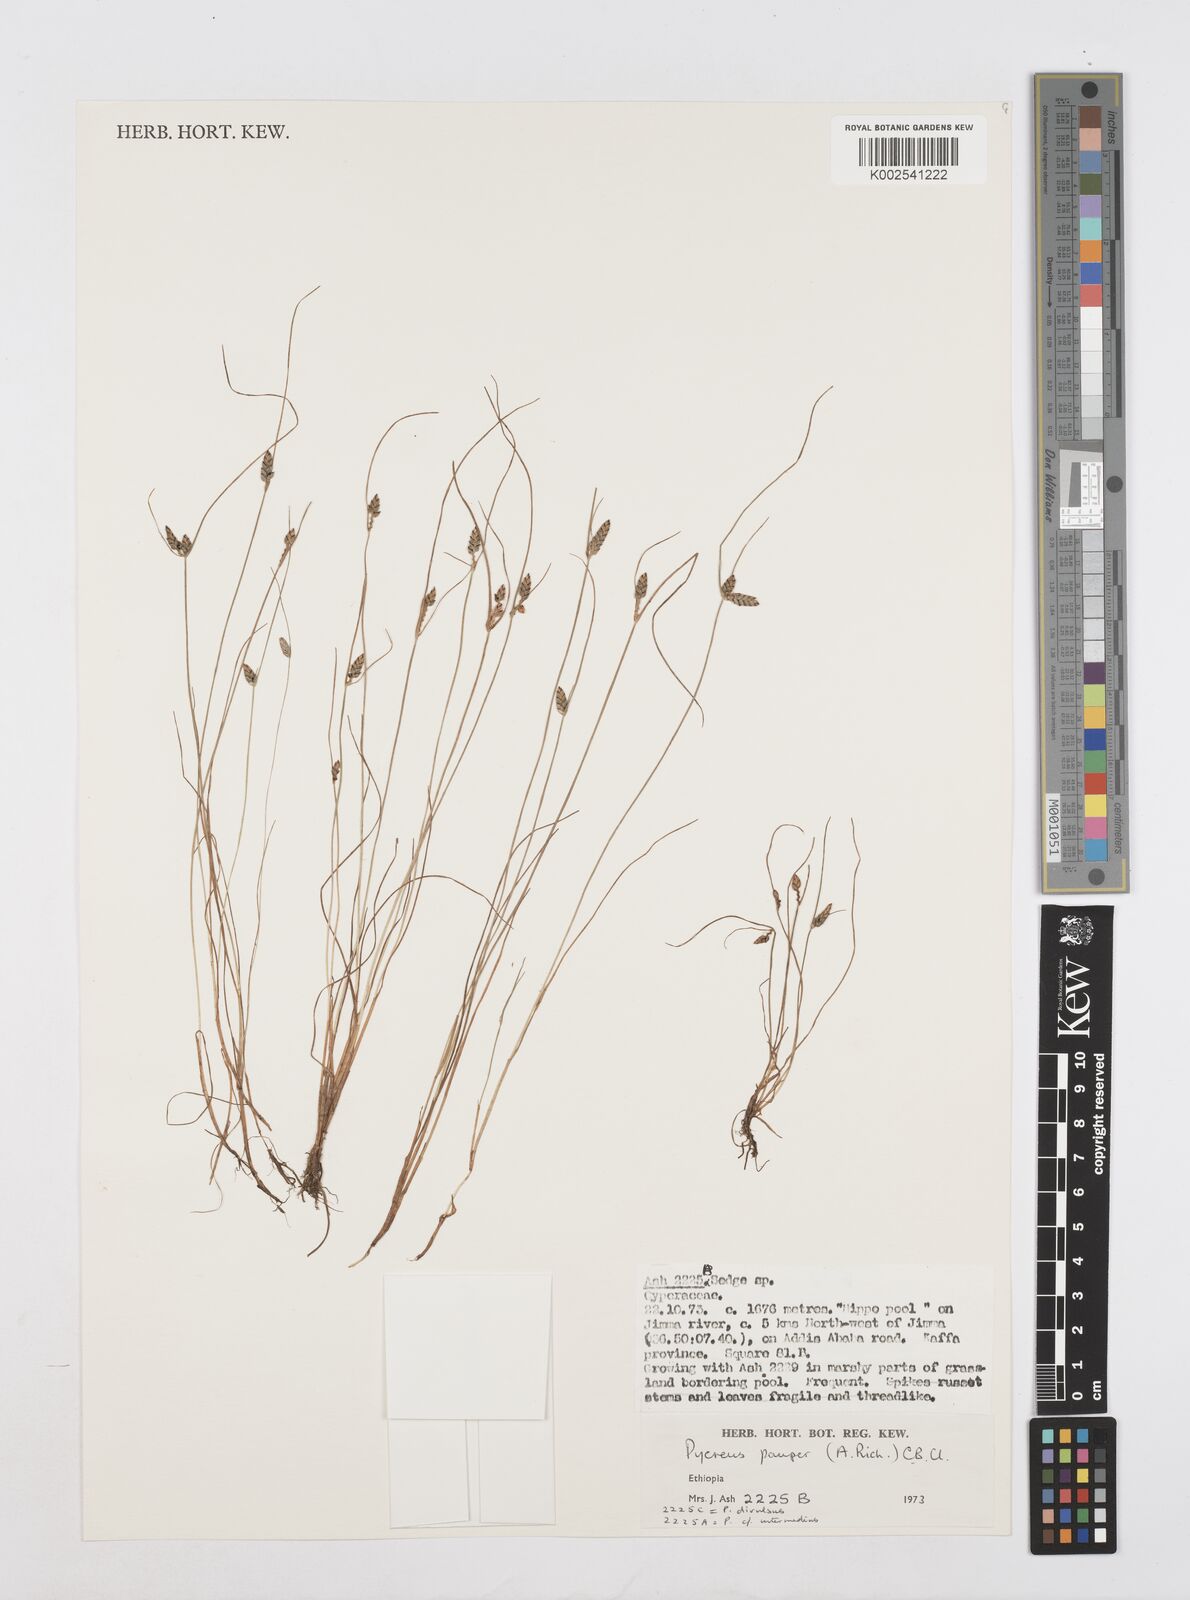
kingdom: Plantae
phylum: Tracheophyta
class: Liliopsida
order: Poales
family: Cyperaceae
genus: Cyperus
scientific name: Cyperus pauper
